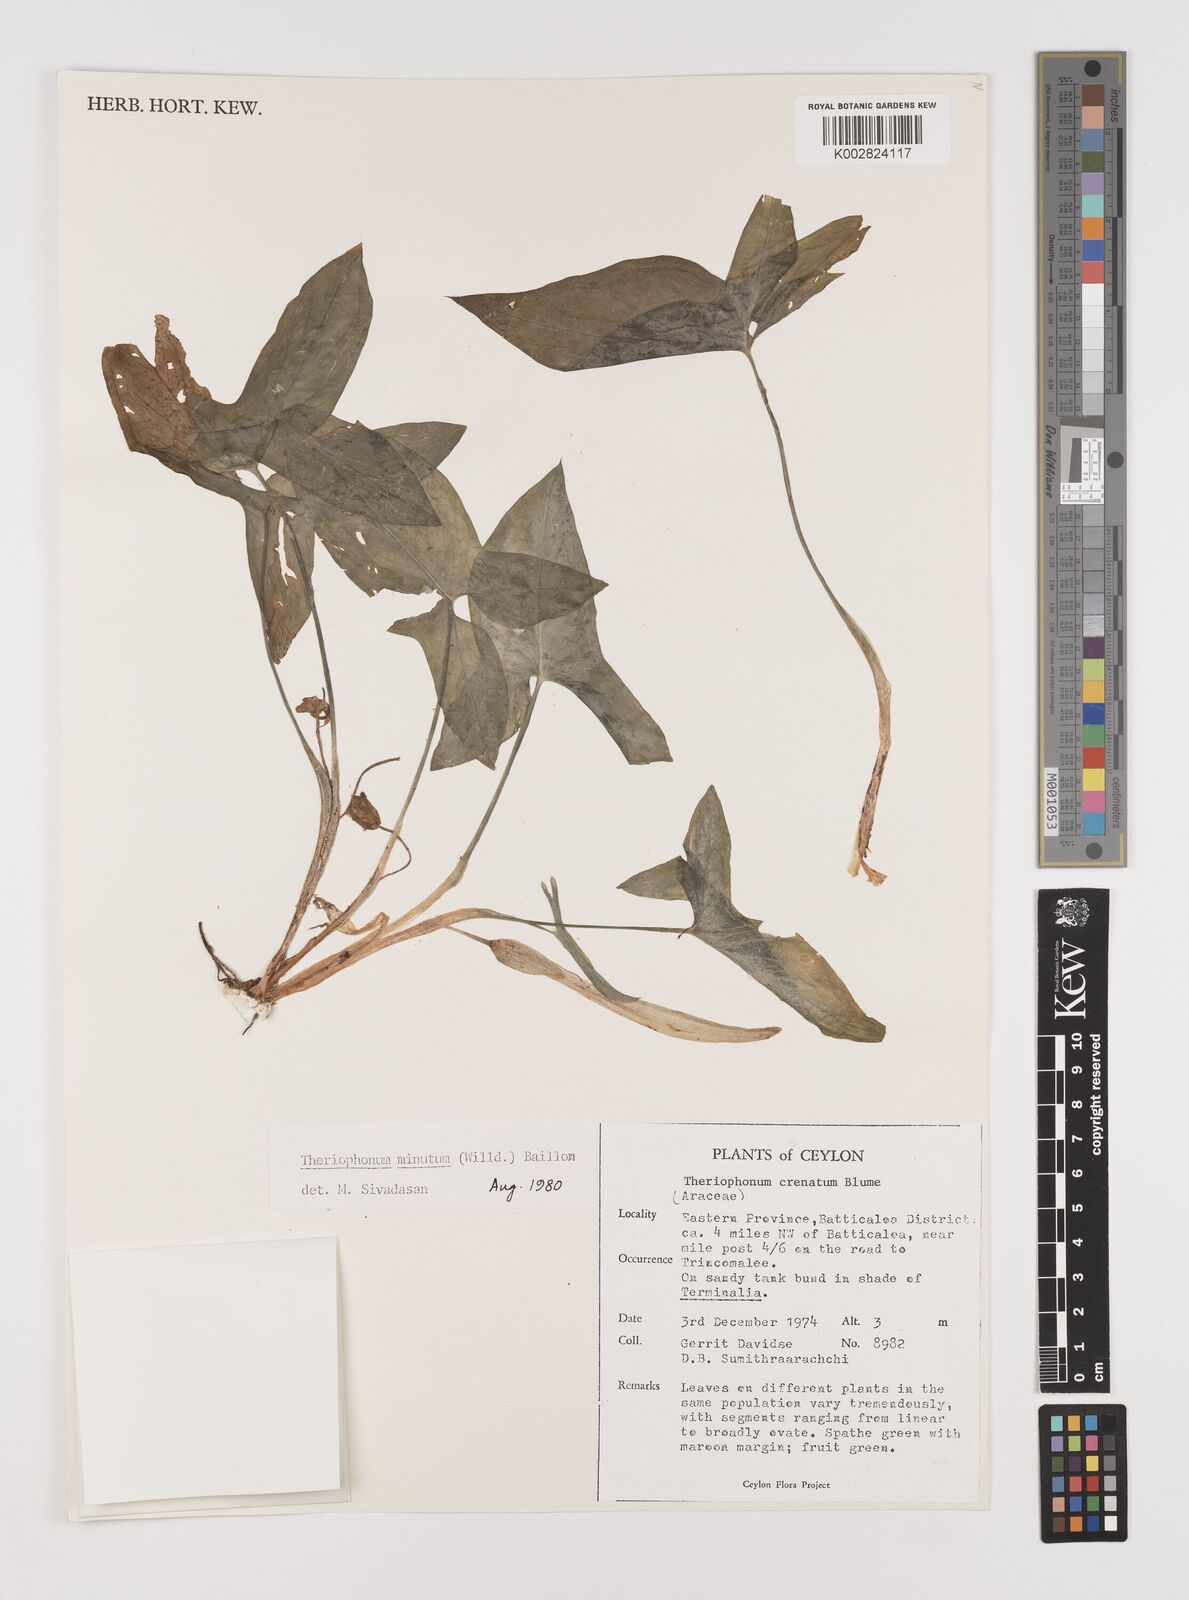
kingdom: Plantae
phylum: Tracheophyta
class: Liliopsida
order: Alismatales
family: Araceae
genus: Theriophonum
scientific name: Theriophonum minutum
